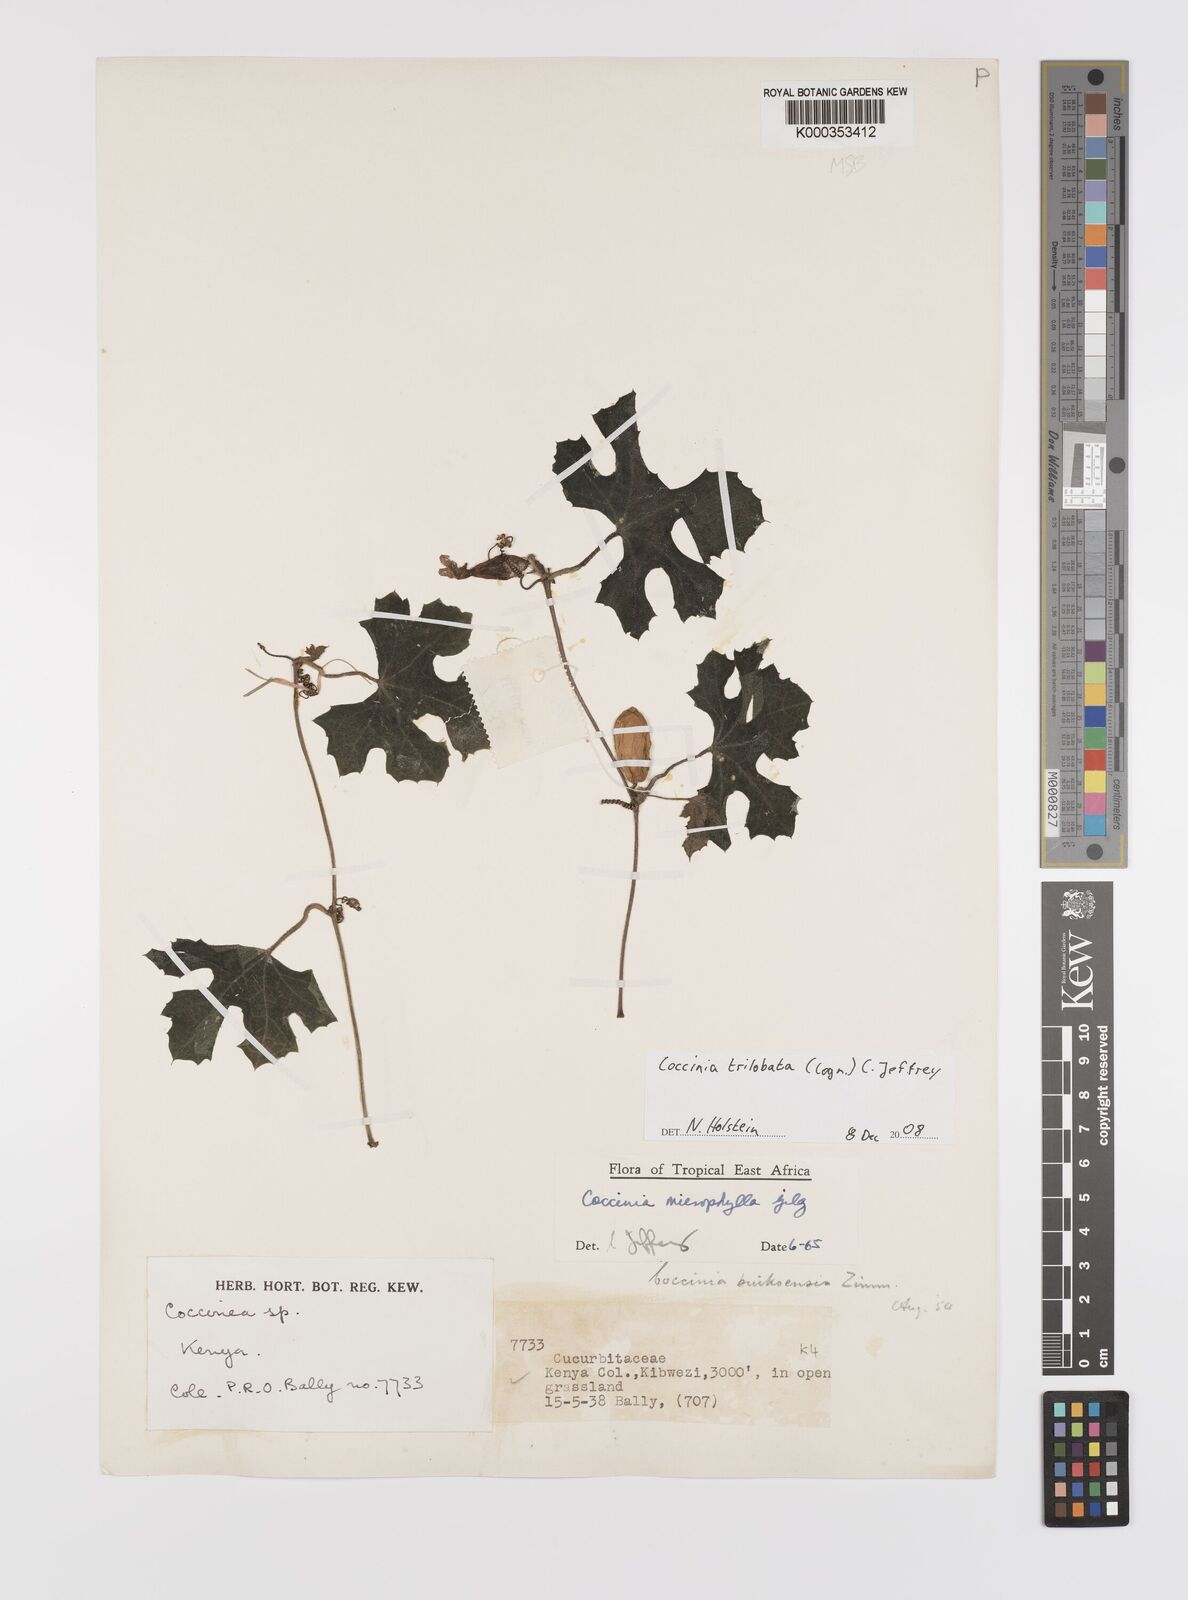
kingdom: Plantae
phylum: Tracheophyta
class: Magnoliopsida
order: Cucurbitales
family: Cucurbitaceae
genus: Coccinia
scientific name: Coccinia microphylla
